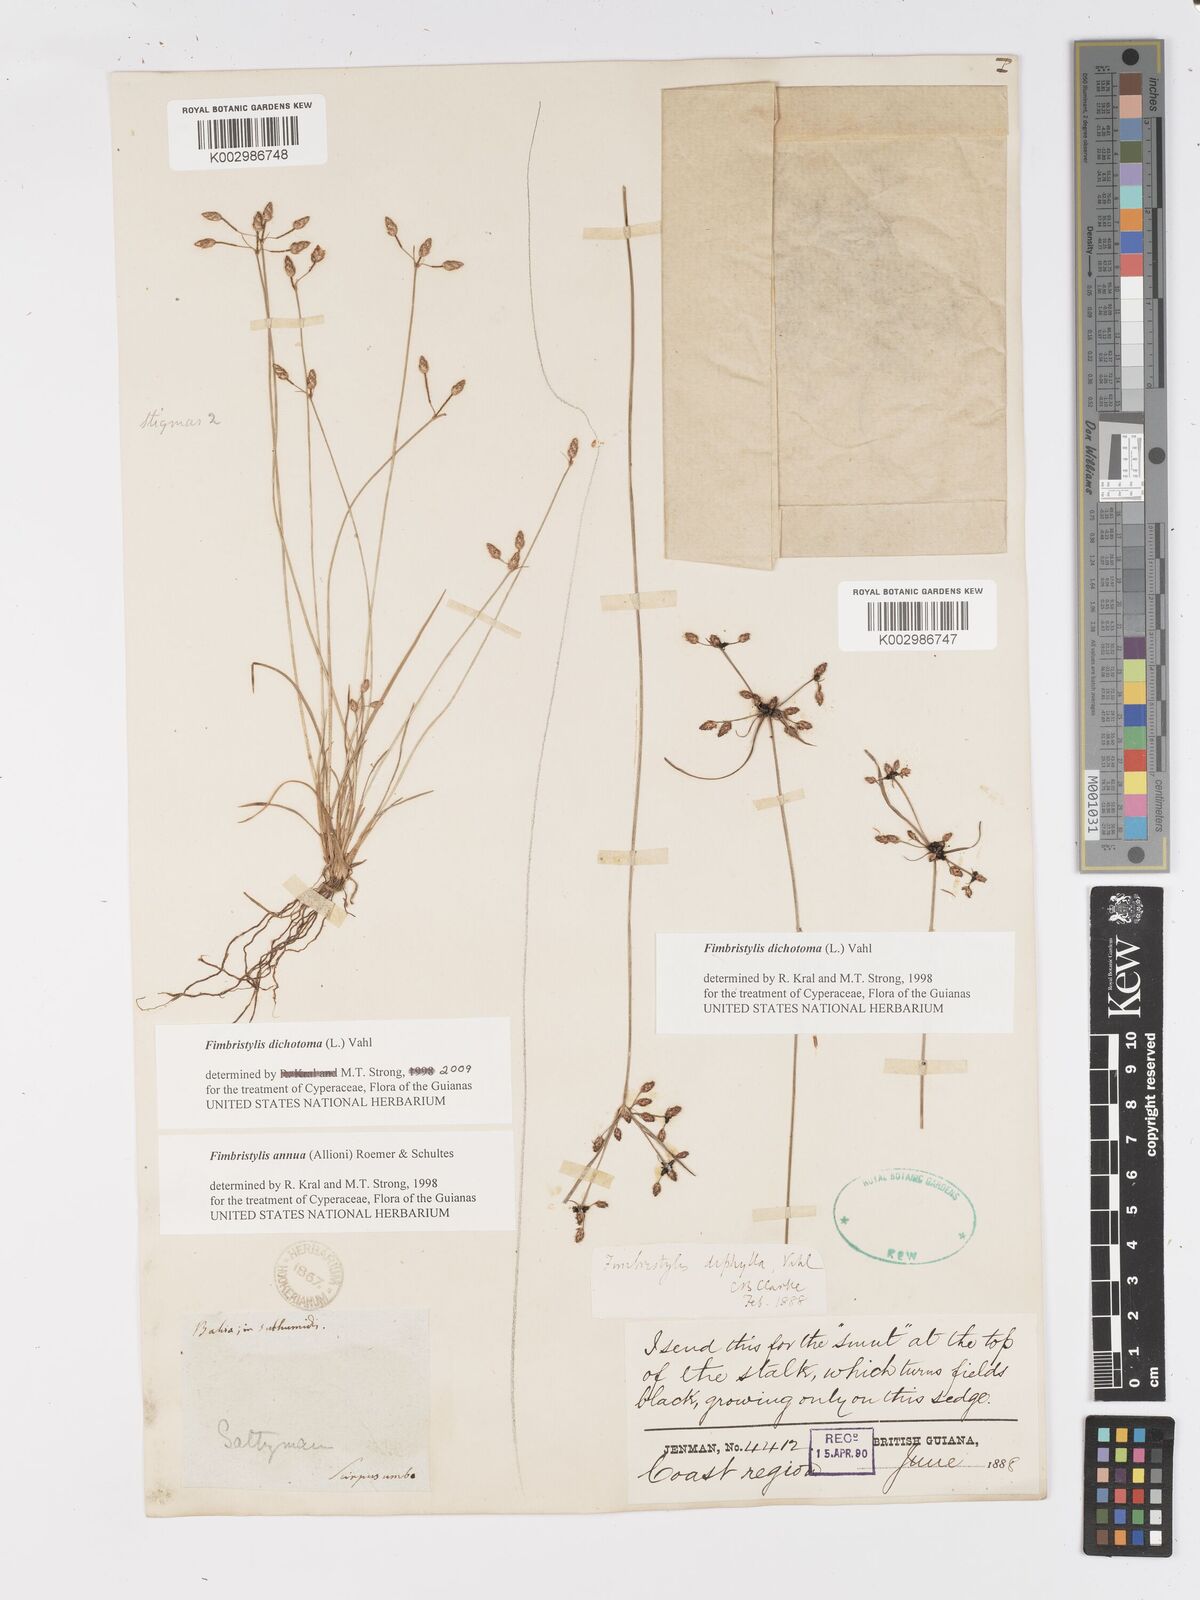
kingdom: Plantae
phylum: Tracheophyta
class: Liliopsida
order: Poales
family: Cyperaceae
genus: Fimbristylis
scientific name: Fimbristylis dichotoma
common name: Forked fimbry
